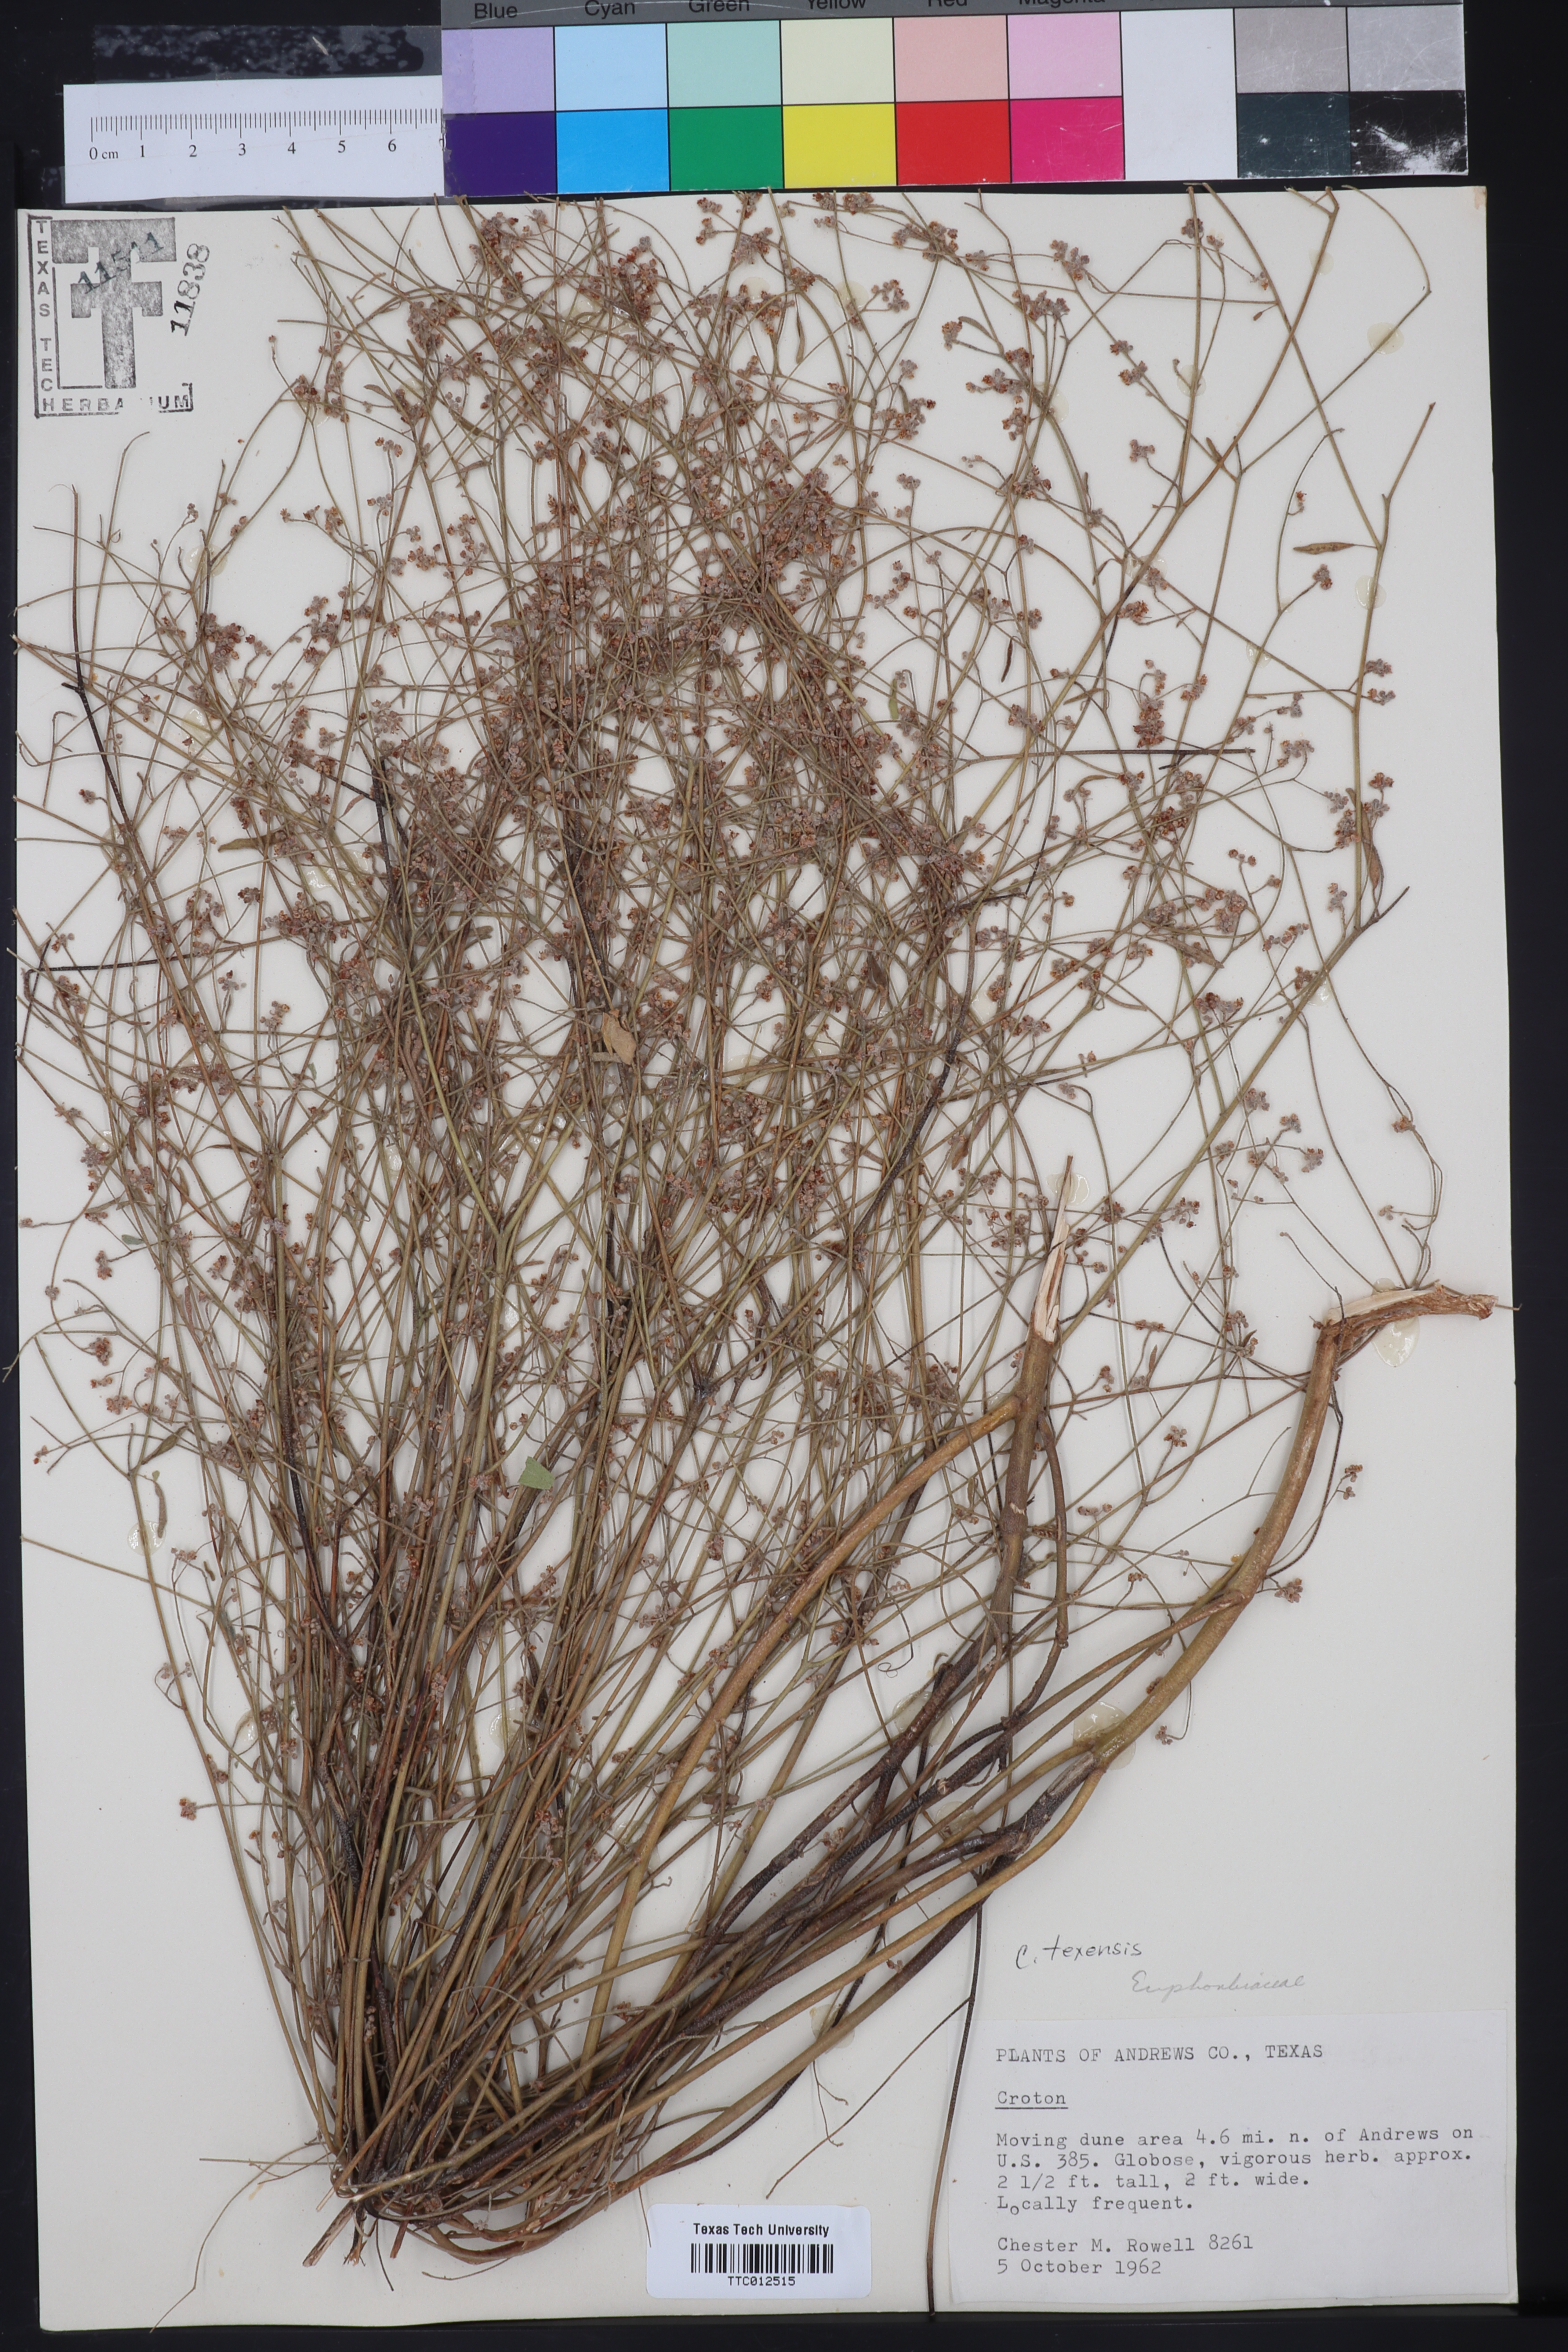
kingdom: Plantae
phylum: Tracheophyta
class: Magnoliopsida
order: Malpighiales
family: Euphorbiaceae
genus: Croton
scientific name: Croton texensis
